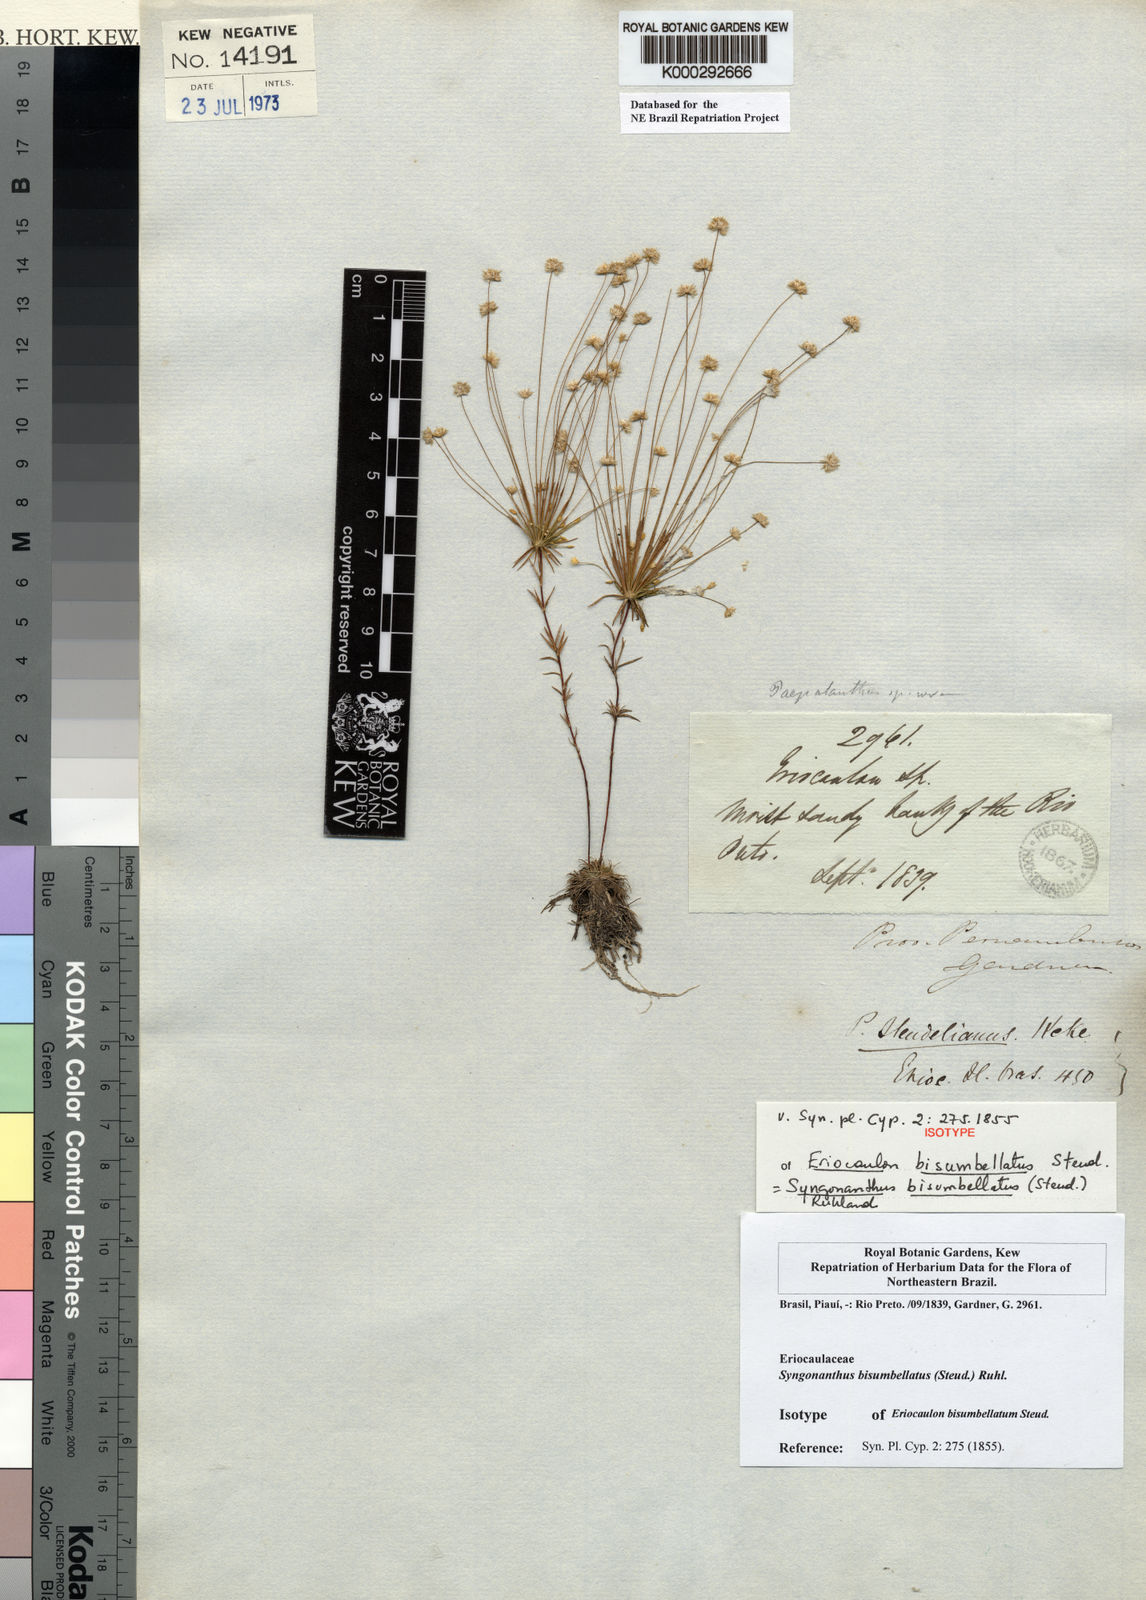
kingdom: Plantae
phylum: Tracheophyta
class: Liliopsida
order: Poales
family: Eriocaulaceae
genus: Syngonanthus
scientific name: Syngonanthus bisumbellatus
